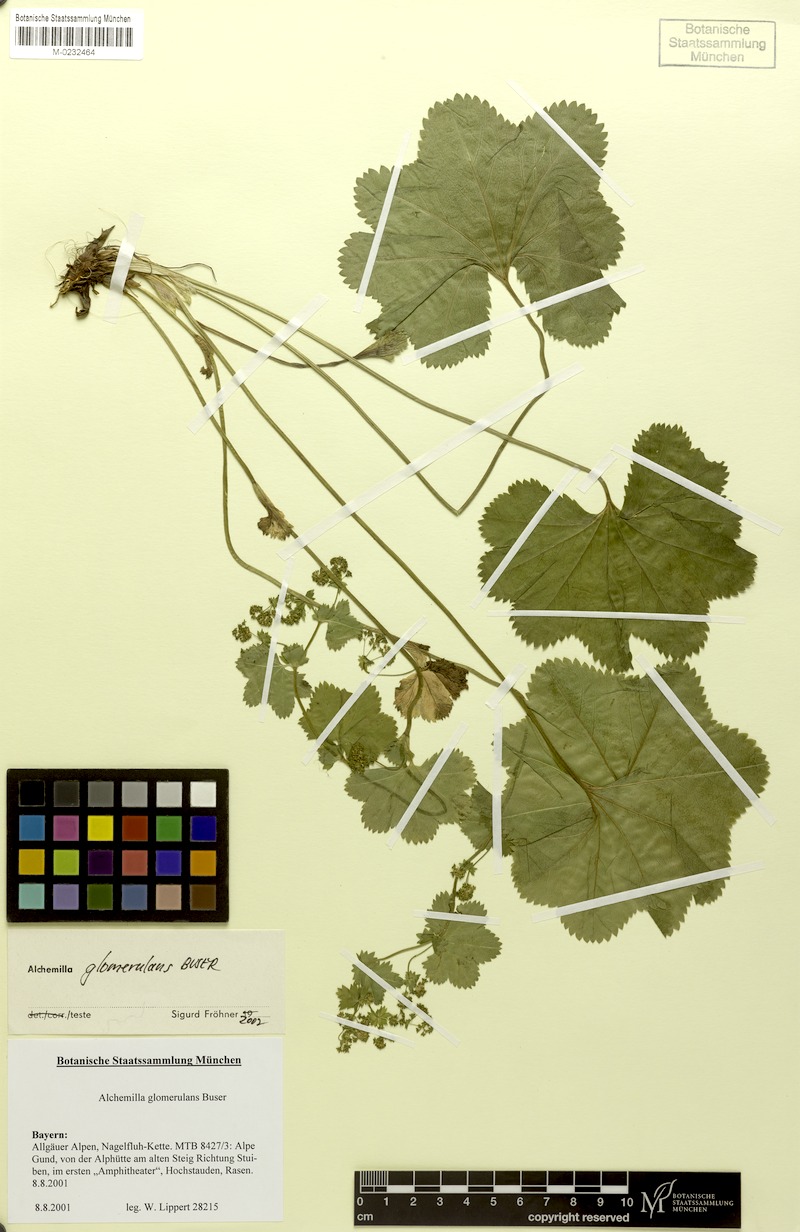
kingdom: Plantae
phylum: Tracheophyta
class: Magnoliopsida
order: Rosales
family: Rosaceae
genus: Alchemilla
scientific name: Alchemilla glomerulans
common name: Clustered lady's mantle
